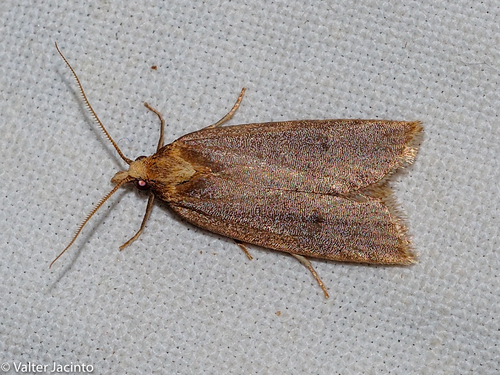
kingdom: Animalia
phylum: Arthropoda
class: Insecta
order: Lepidoptera
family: Tortricidae
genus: Avaria
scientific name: Avaria hyerana
